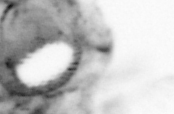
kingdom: Animalia
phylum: Arthropoda
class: Copepoda
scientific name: Copepoda
